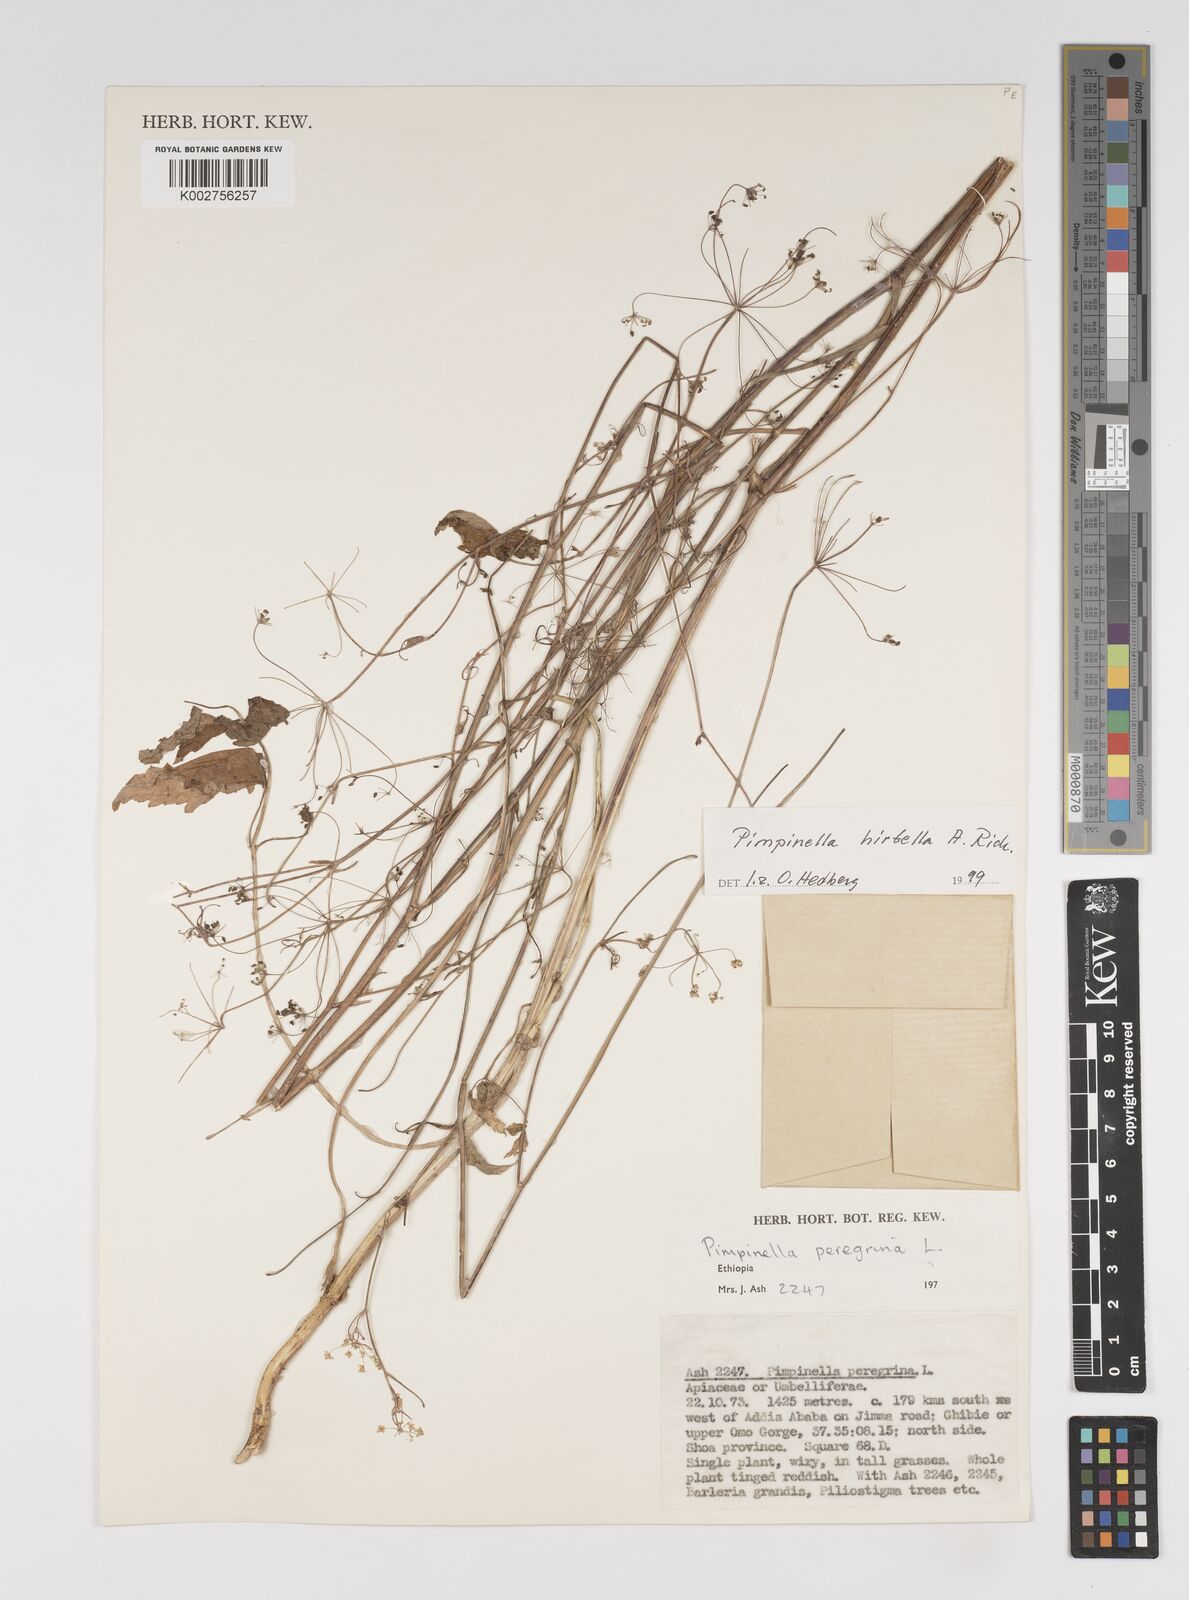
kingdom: Plantae
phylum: Tracheophyta
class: Magnoliopsida
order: Apiales
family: Apiaceae
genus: Pimpinella
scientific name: Pimpinella hirtella
